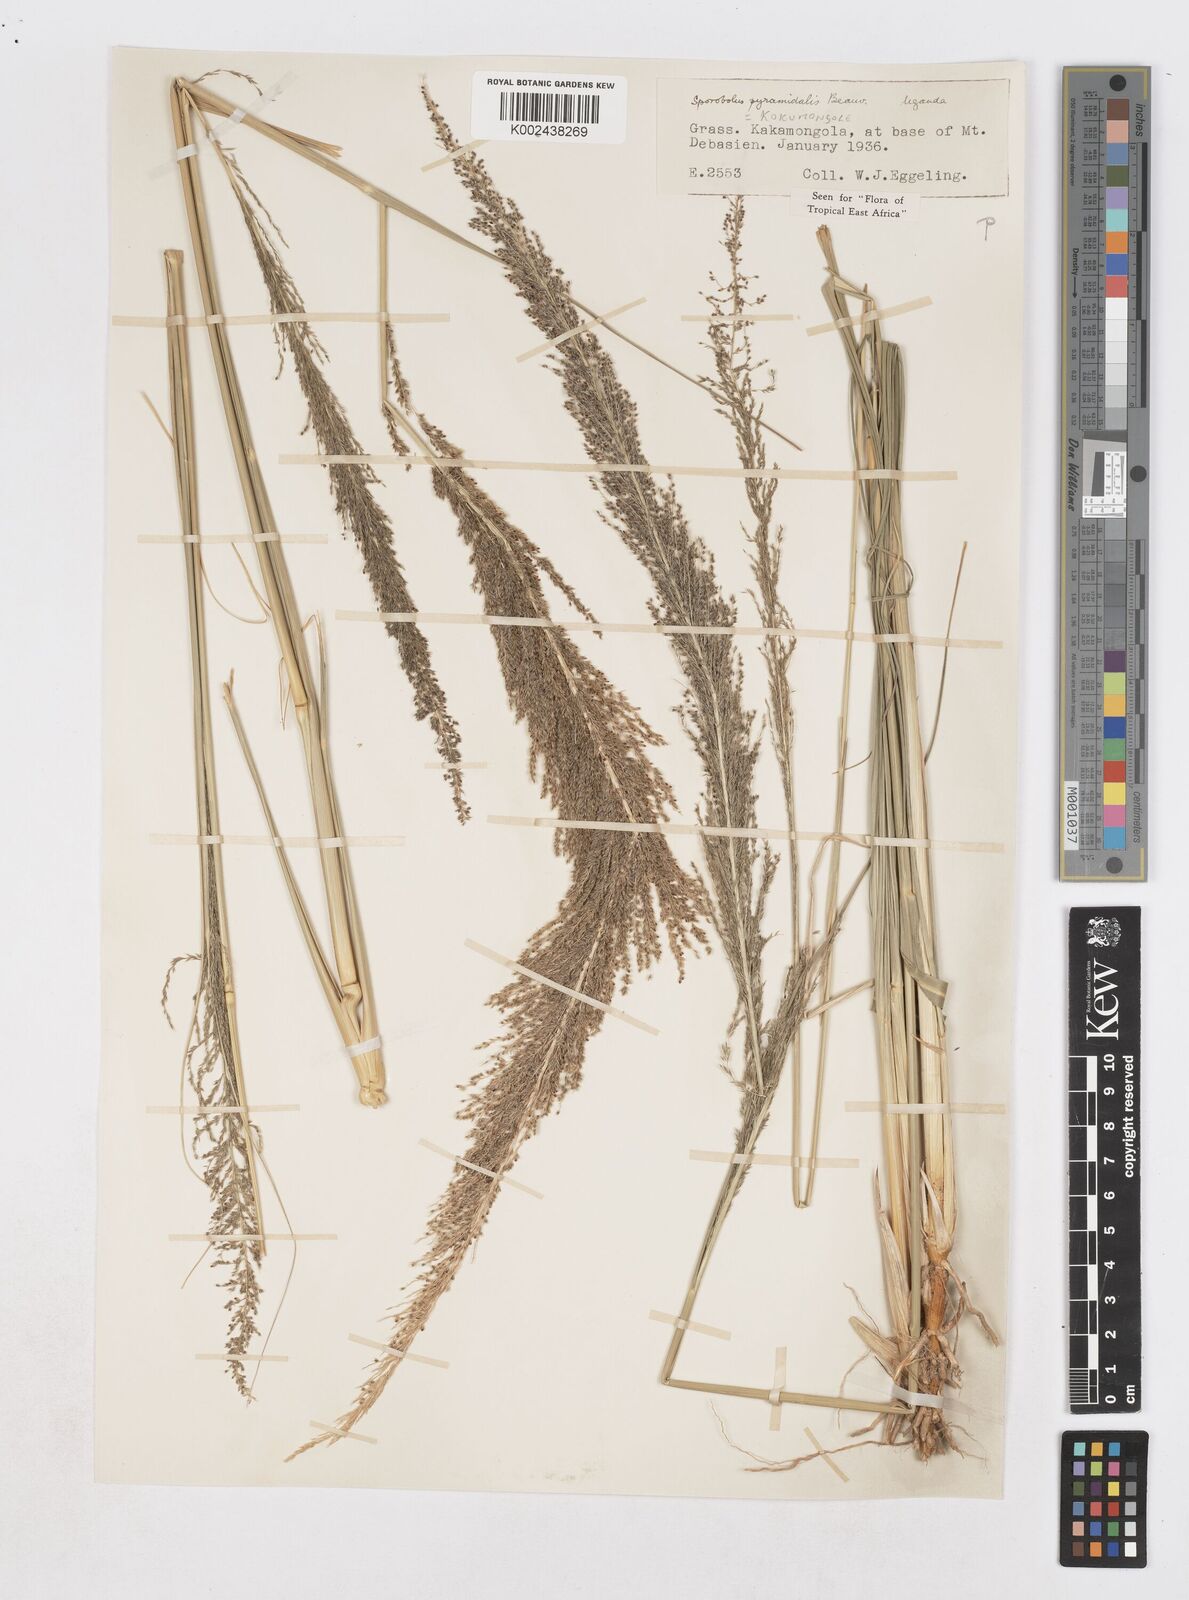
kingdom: Plantae
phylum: Tracheophyta
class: Liliopsida
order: Poales
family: Poaceae
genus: Sporobolus
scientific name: Sporobolus pyramidalis
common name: West indian dropseed
